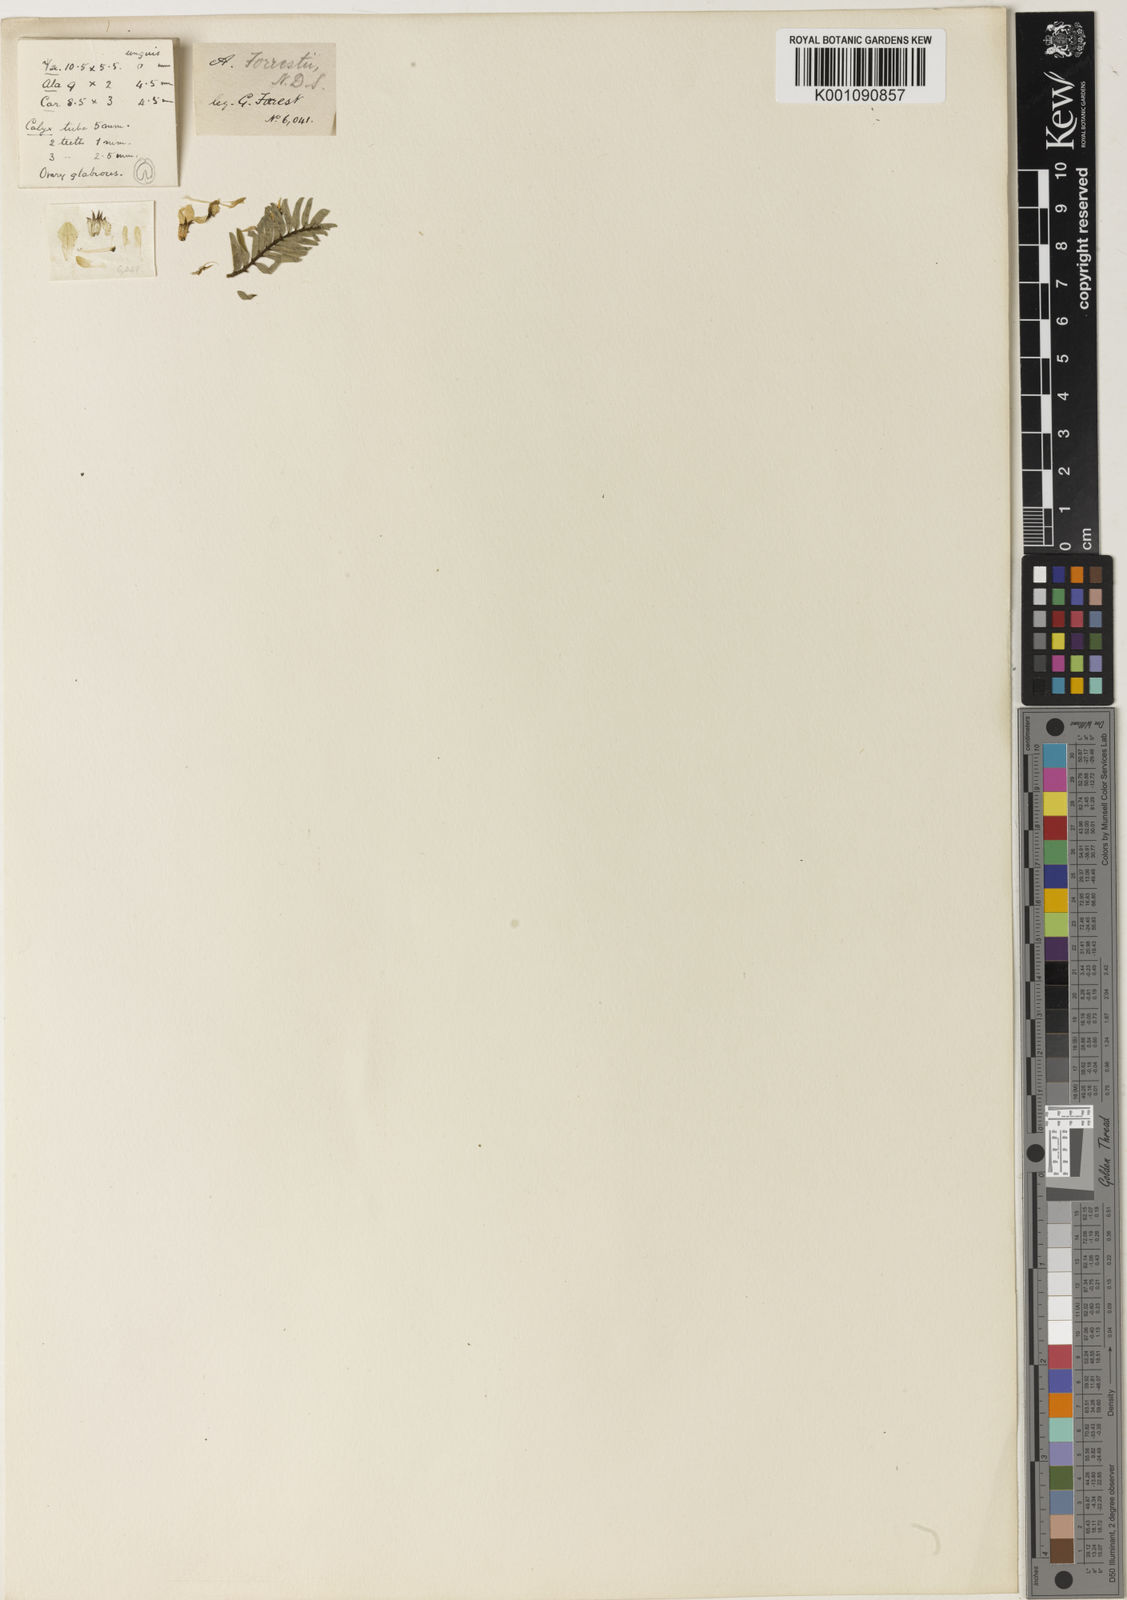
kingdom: Plantae
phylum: Tracheophyta
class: Magnoliopsida
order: Fabales
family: Fabaceae
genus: Astragalus
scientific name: Astragalus
